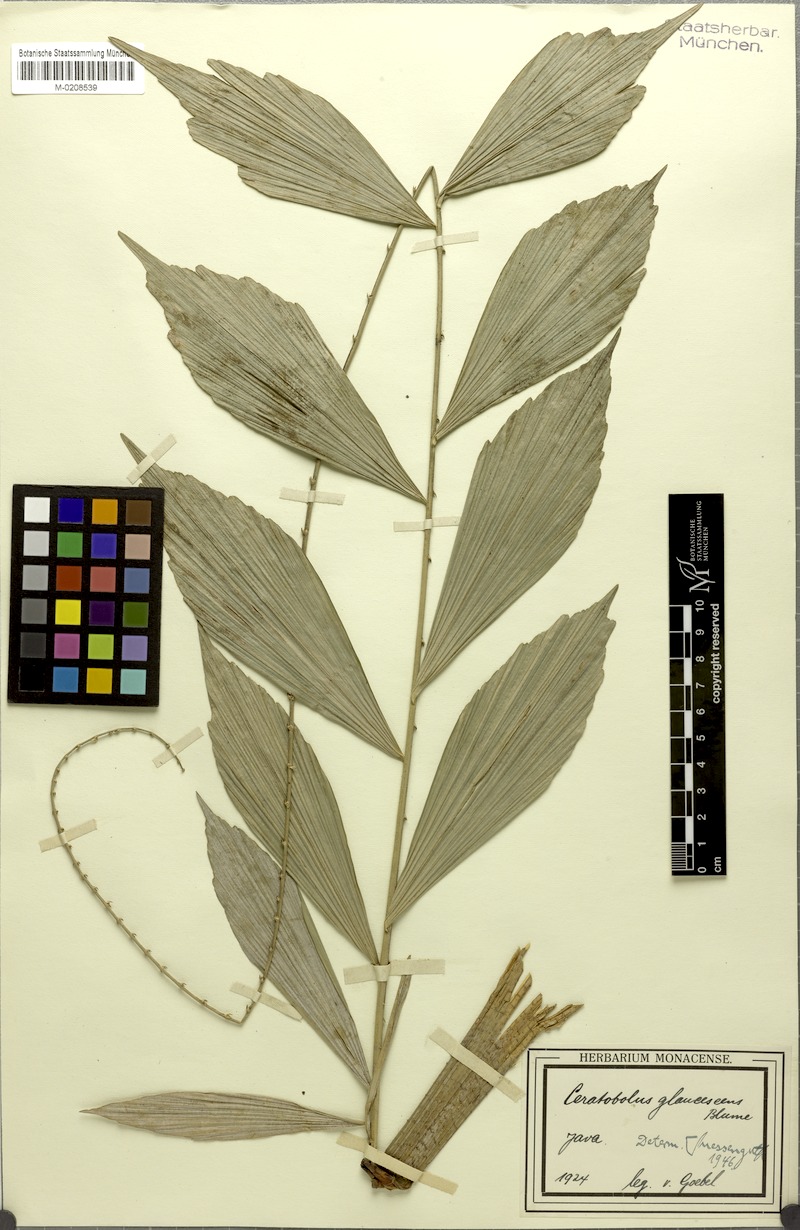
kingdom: Plantae
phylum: Tracheophyta
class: Liliopsida
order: Arecales
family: Arecaceae
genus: Calamus
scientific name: Calamus glaucescens
